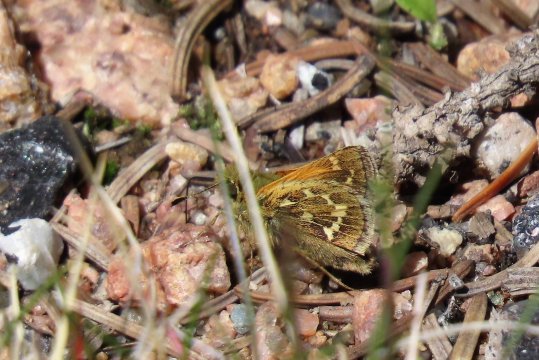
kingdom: Animalia
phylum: Arthropoda
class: Insecta
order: Lepidoptera
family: Hesperiidae
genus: Polites
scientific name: Polites sabuleti
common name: Draco Skipper
